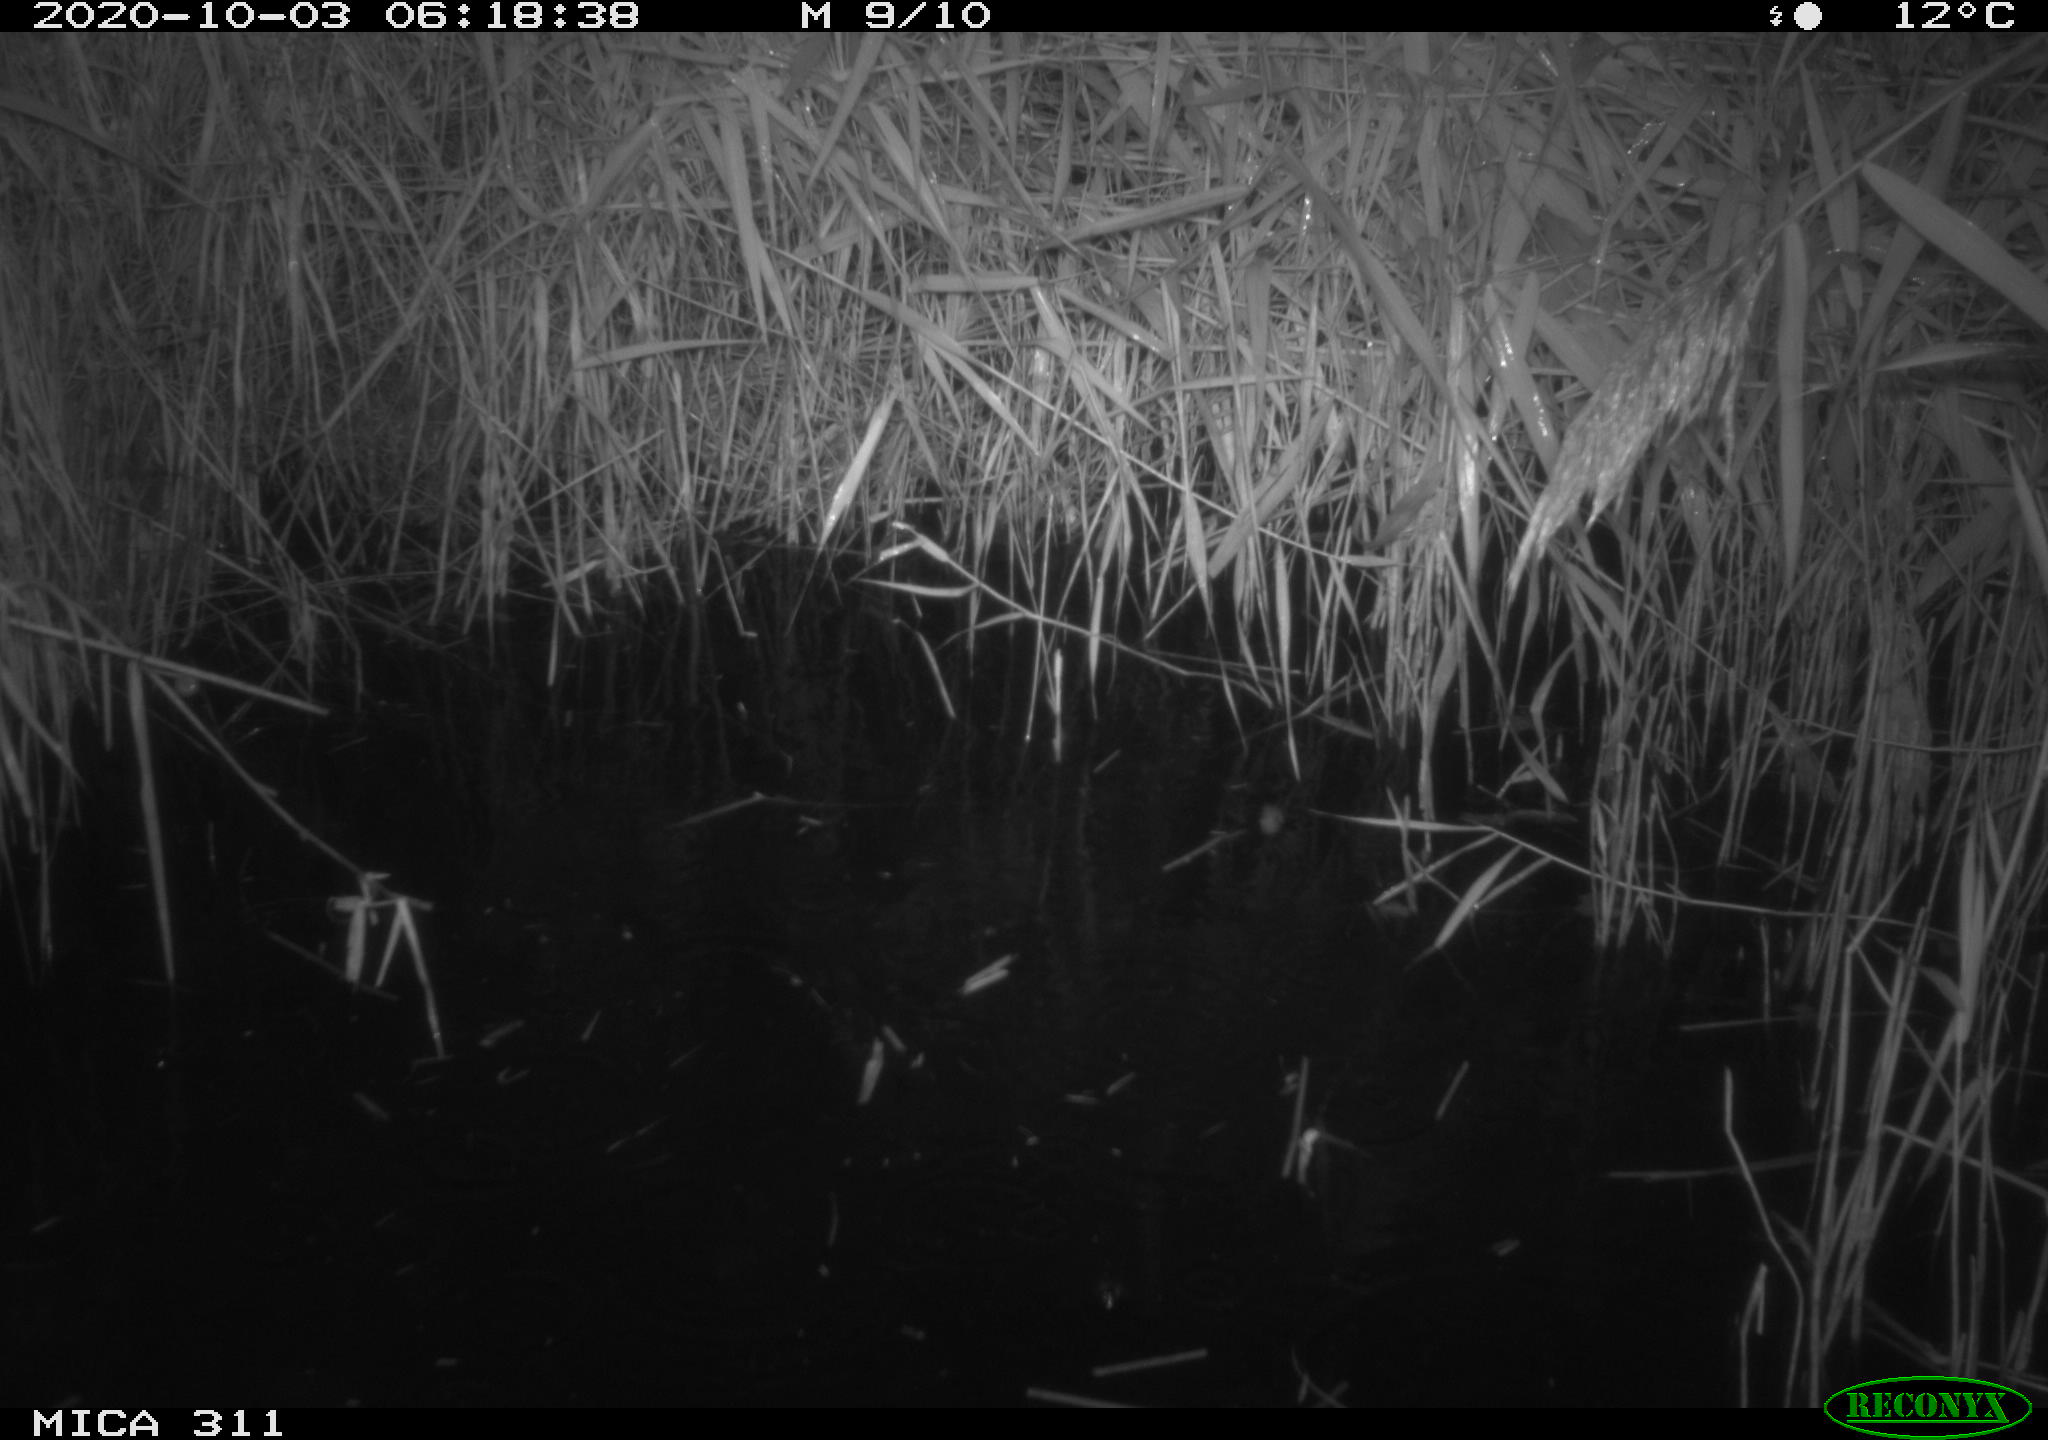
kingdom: Animalia
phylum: Chordata
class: Mammalia
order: Rodentia
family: Muridae
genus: Rattus
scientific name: Rattus norvegicus
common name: Brown rat
